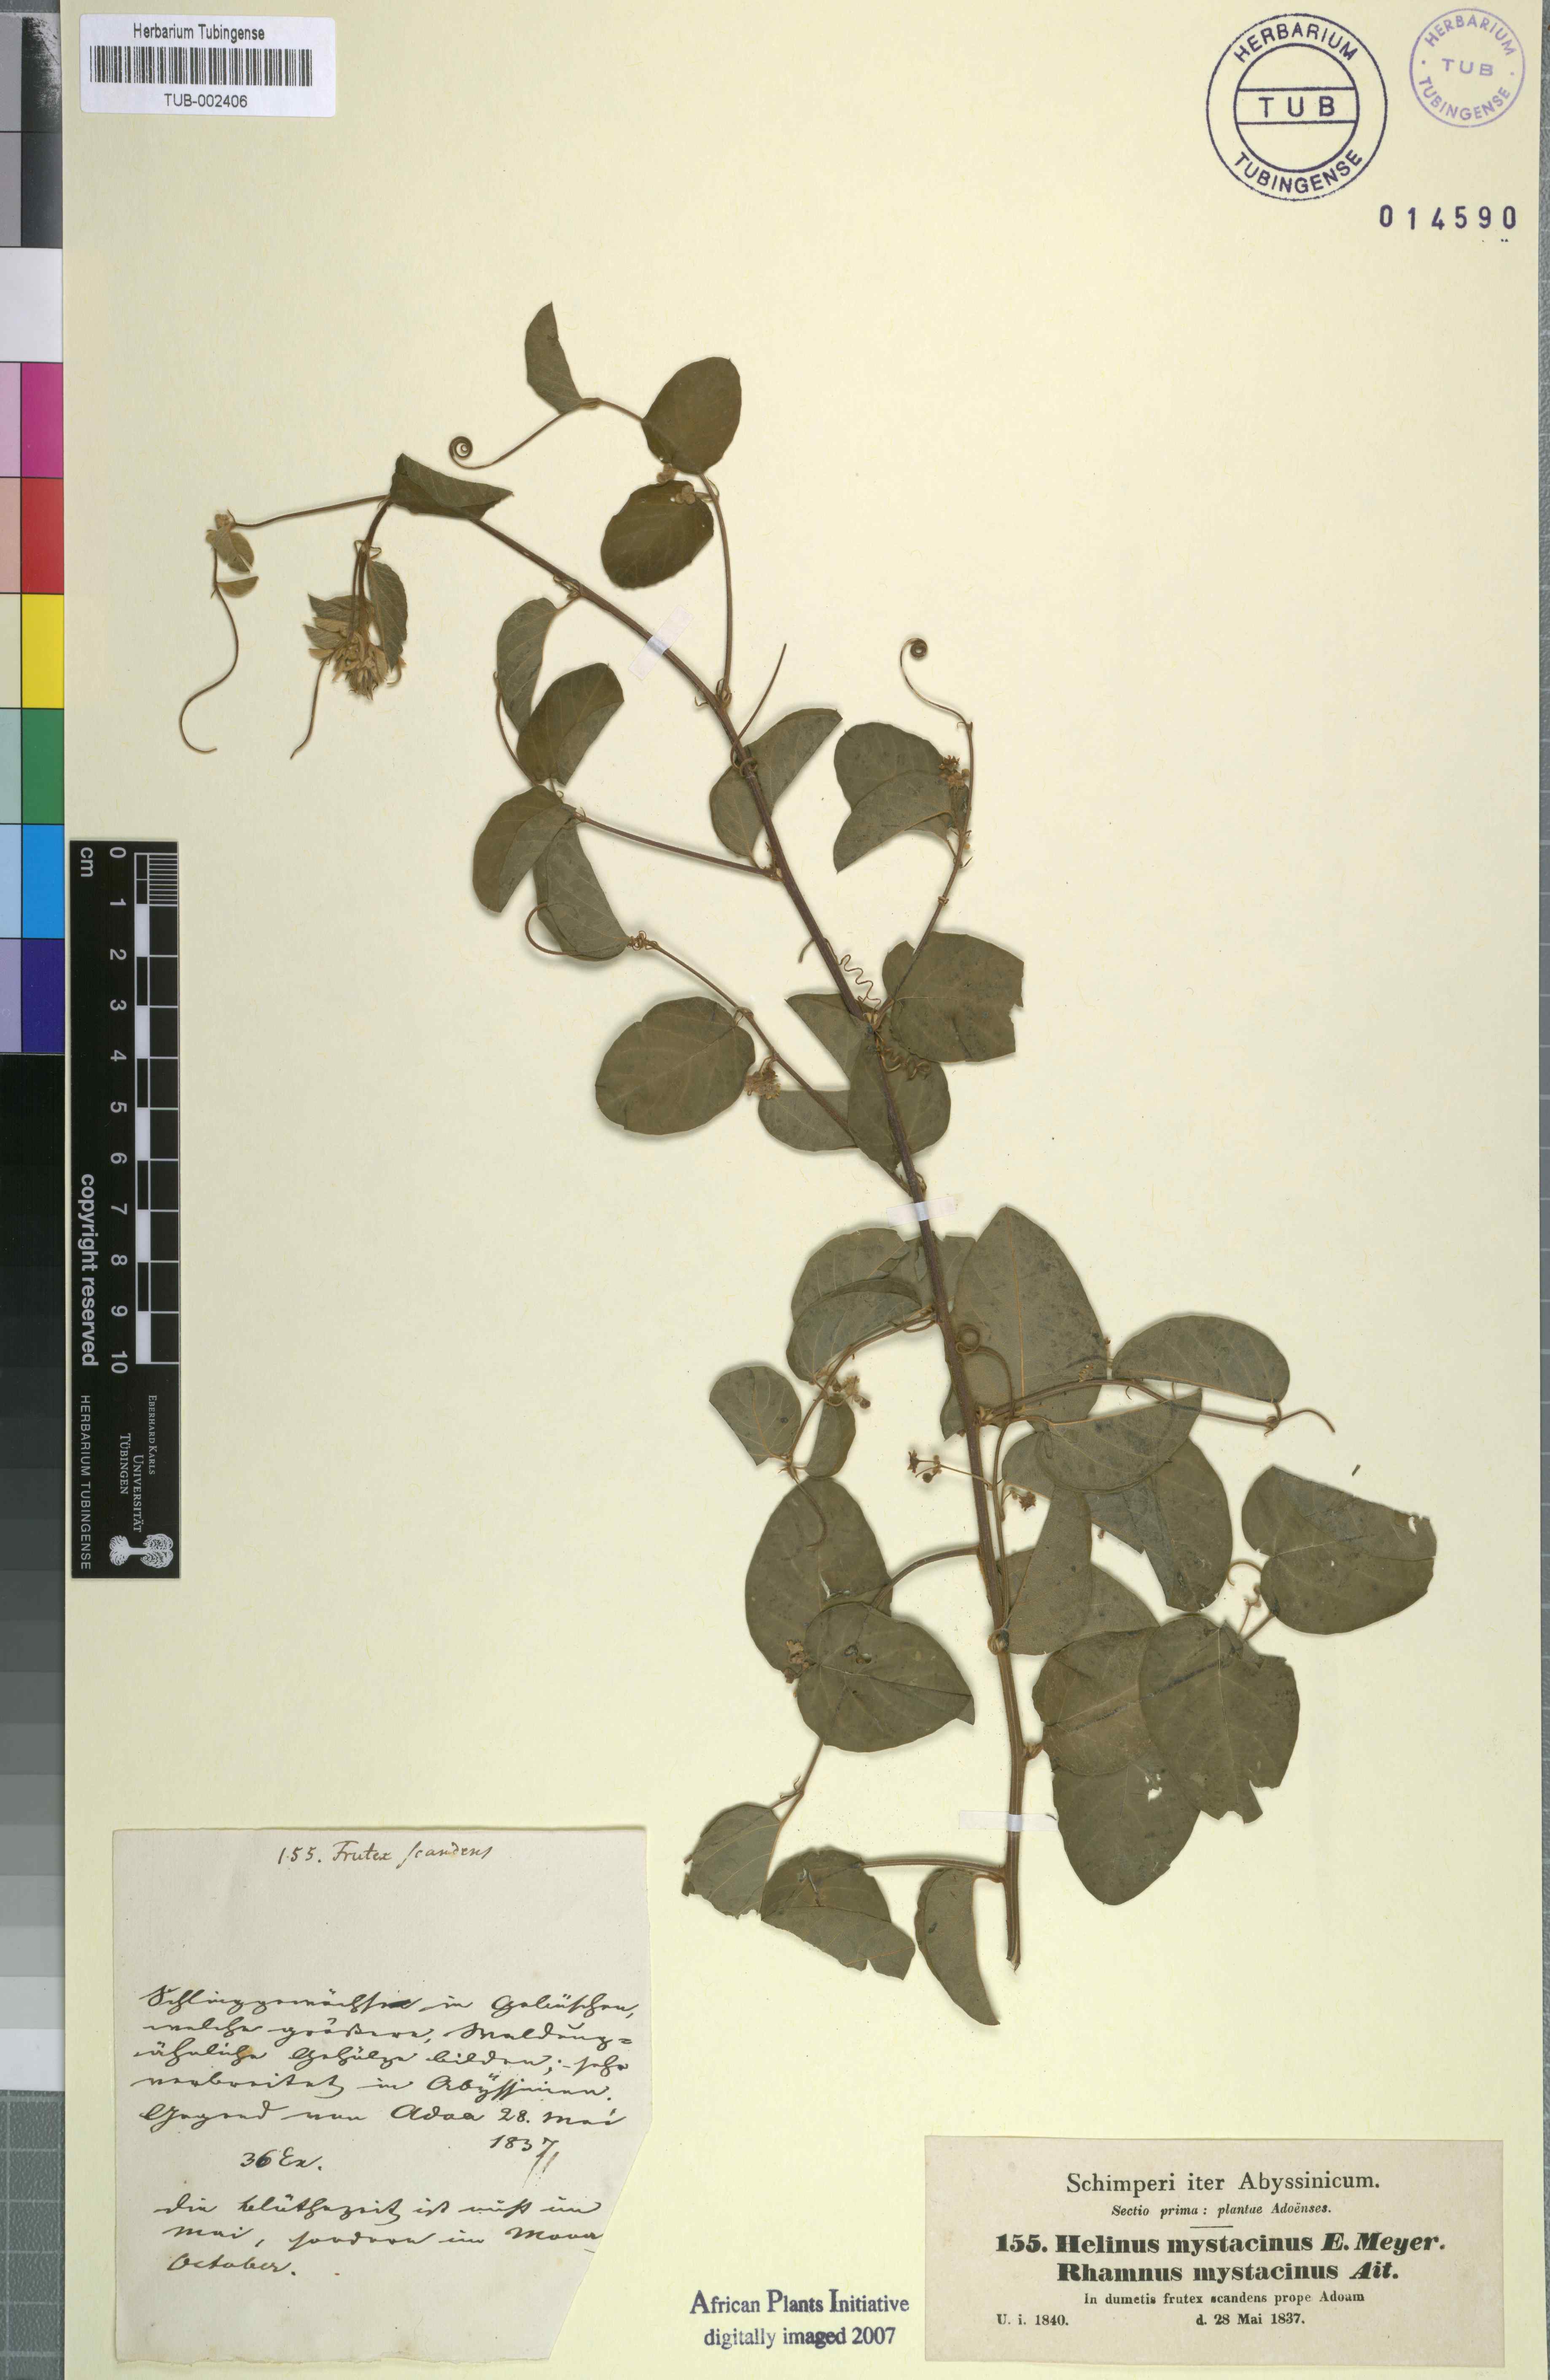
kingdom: Plantae
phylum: Tracheophyta
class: Magnoliopsida
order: Rosales
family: Rhamnaceae
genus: Helinus
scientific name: Helinus mystacinus
